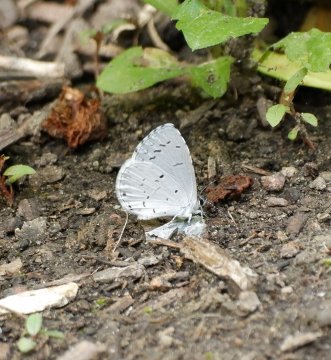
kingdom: Animalia
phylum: Arthropoda
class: Insecta
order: Lepidoptera
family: Lycaenidae
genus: Cyaniris
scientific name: Cyaniris neglecta
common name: Summer Azure
